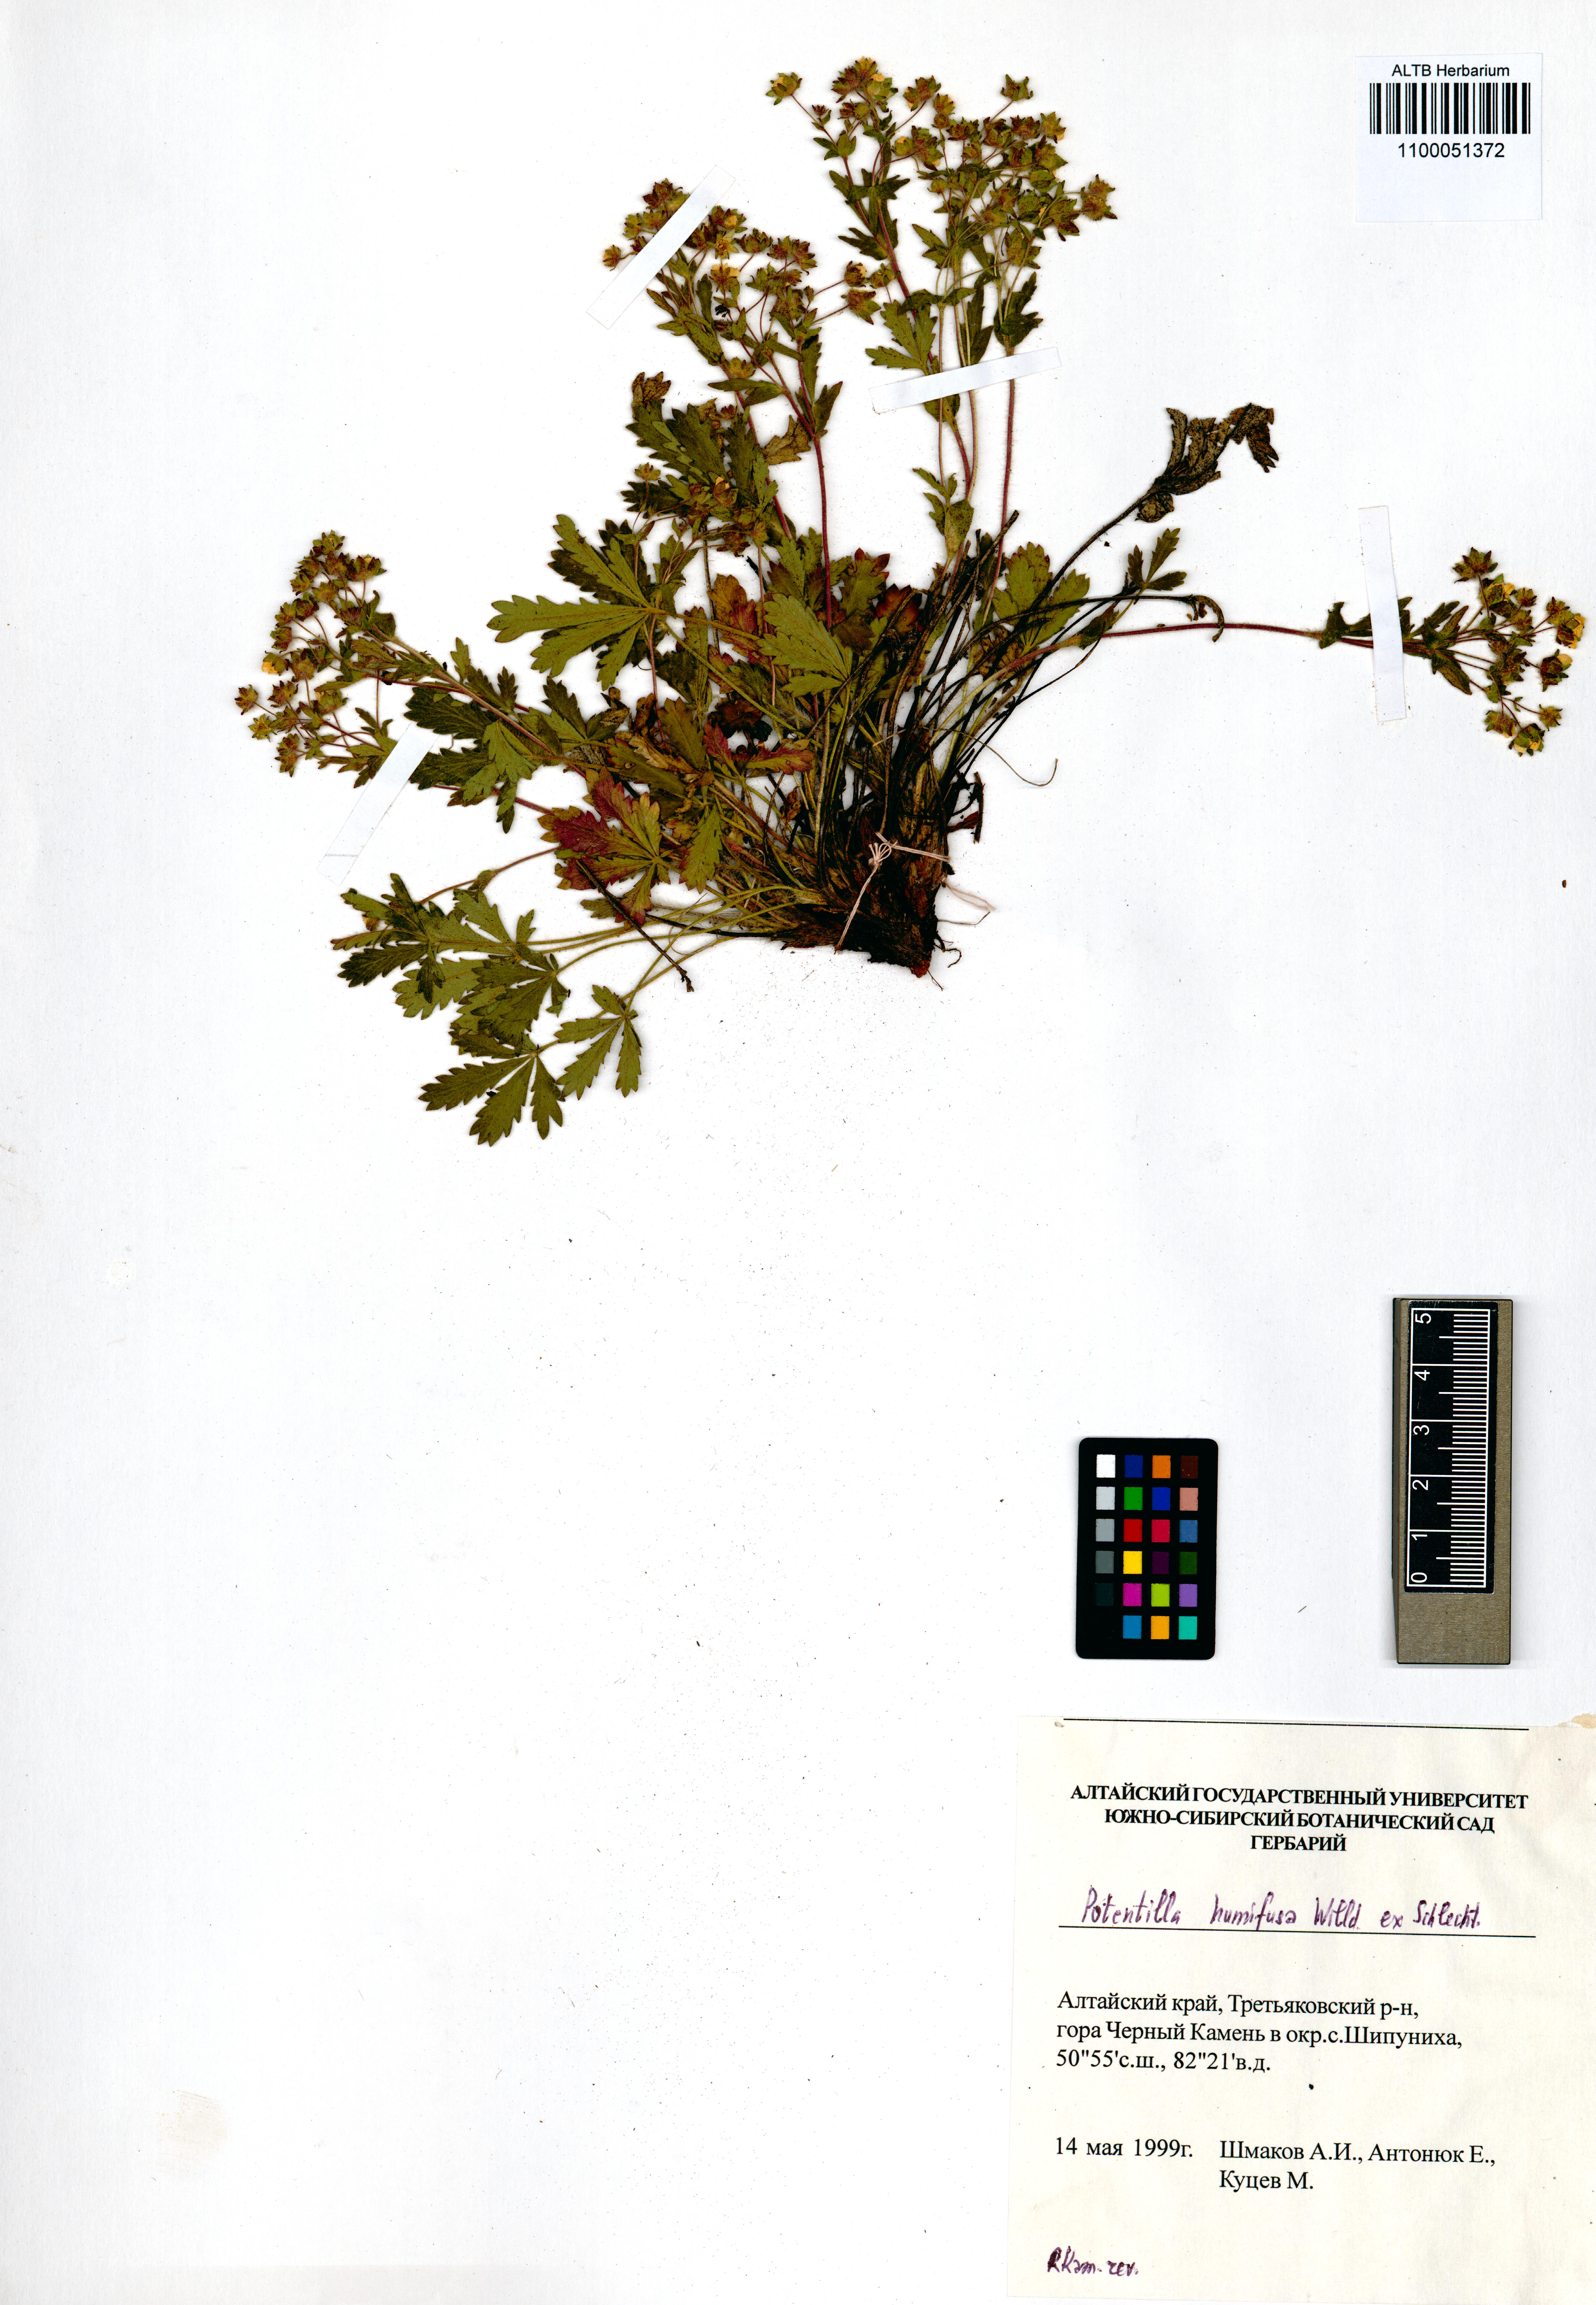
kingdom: Plantae
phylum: Tracheophyta
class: Magnoliopsida
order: Rosales
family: Rosaceae
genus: Potentilla
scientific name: Potentilla humifusa
